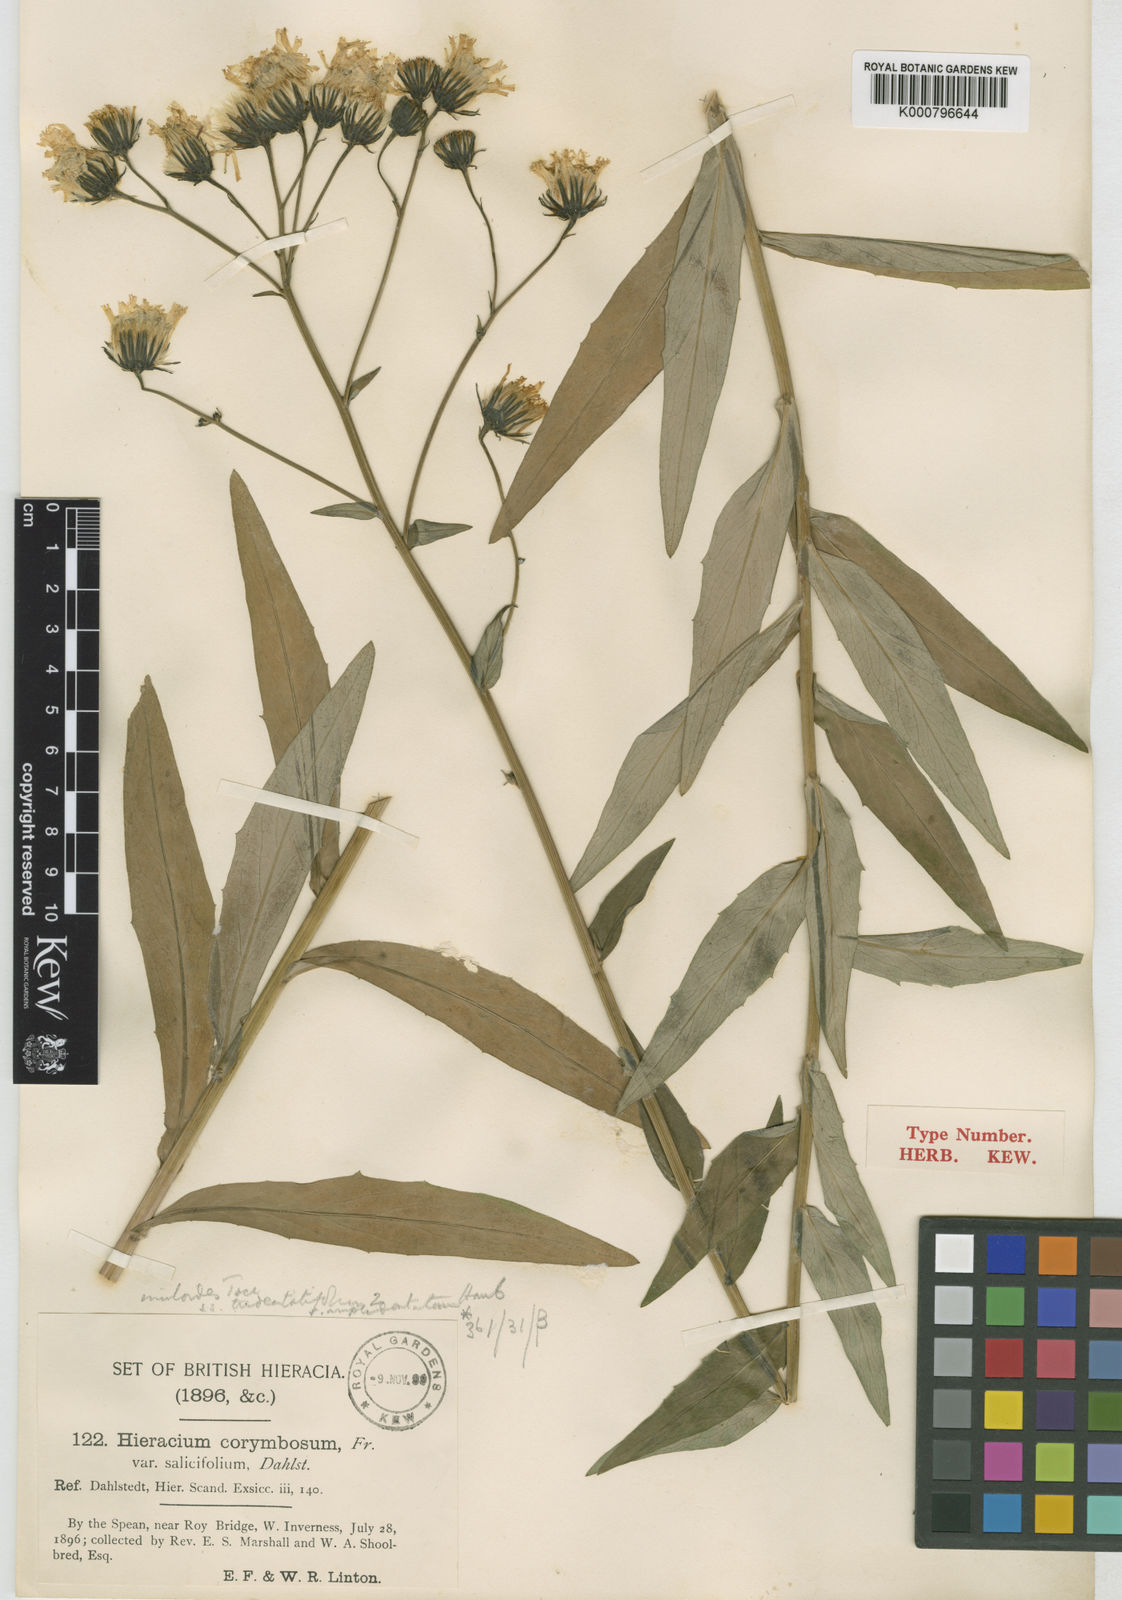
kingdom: Plantae
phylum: Tracheophyta
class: Magnoliopsida
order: Asterales
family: Asteraceae
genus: Hieracium
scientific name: Hieracium subumbellatiforme
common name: Slender hawkweed
